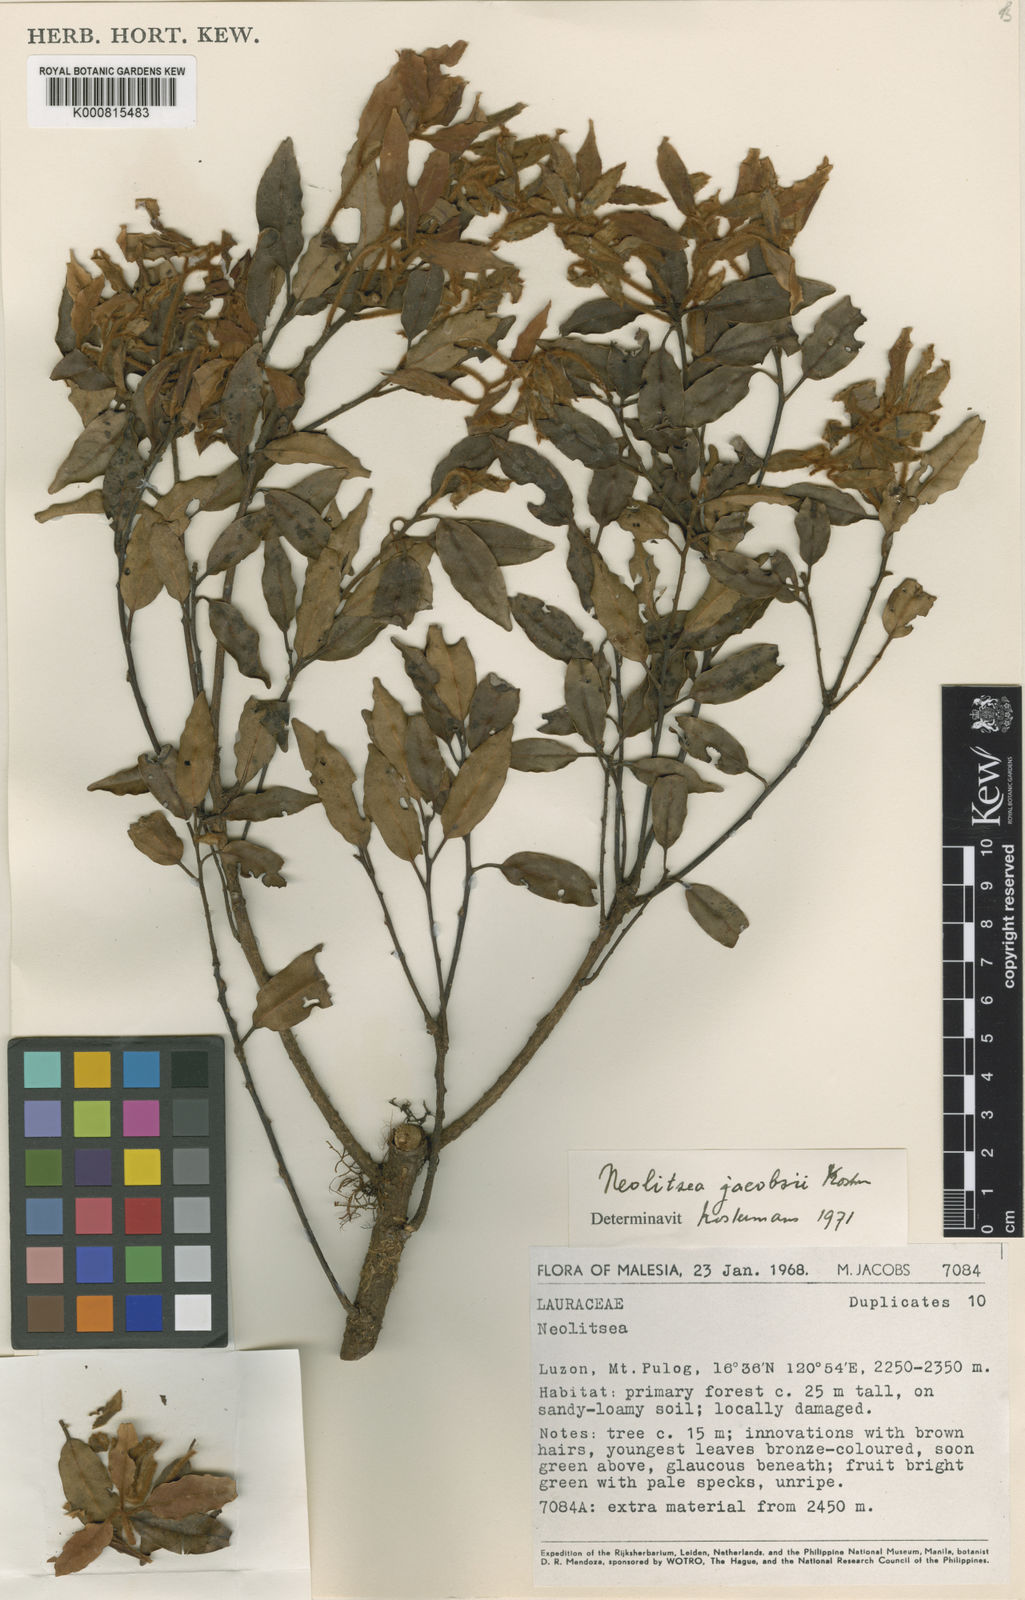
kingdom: Plantae
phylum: Tracheophyta
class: Magnoliopsida
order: Laurales
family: Lauraceae
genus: Neolitsea
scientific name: Neolitsea
